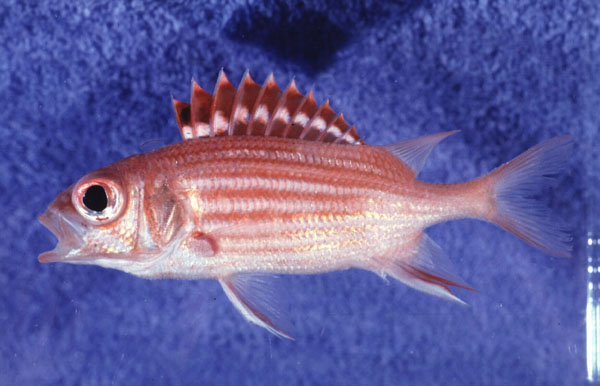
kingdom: Animalia
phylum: Chordata
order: Beryciformes
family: Holocentridae
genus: Sargocentron
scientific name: Sargocentron ittodai
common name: Samurai squirrelfish
